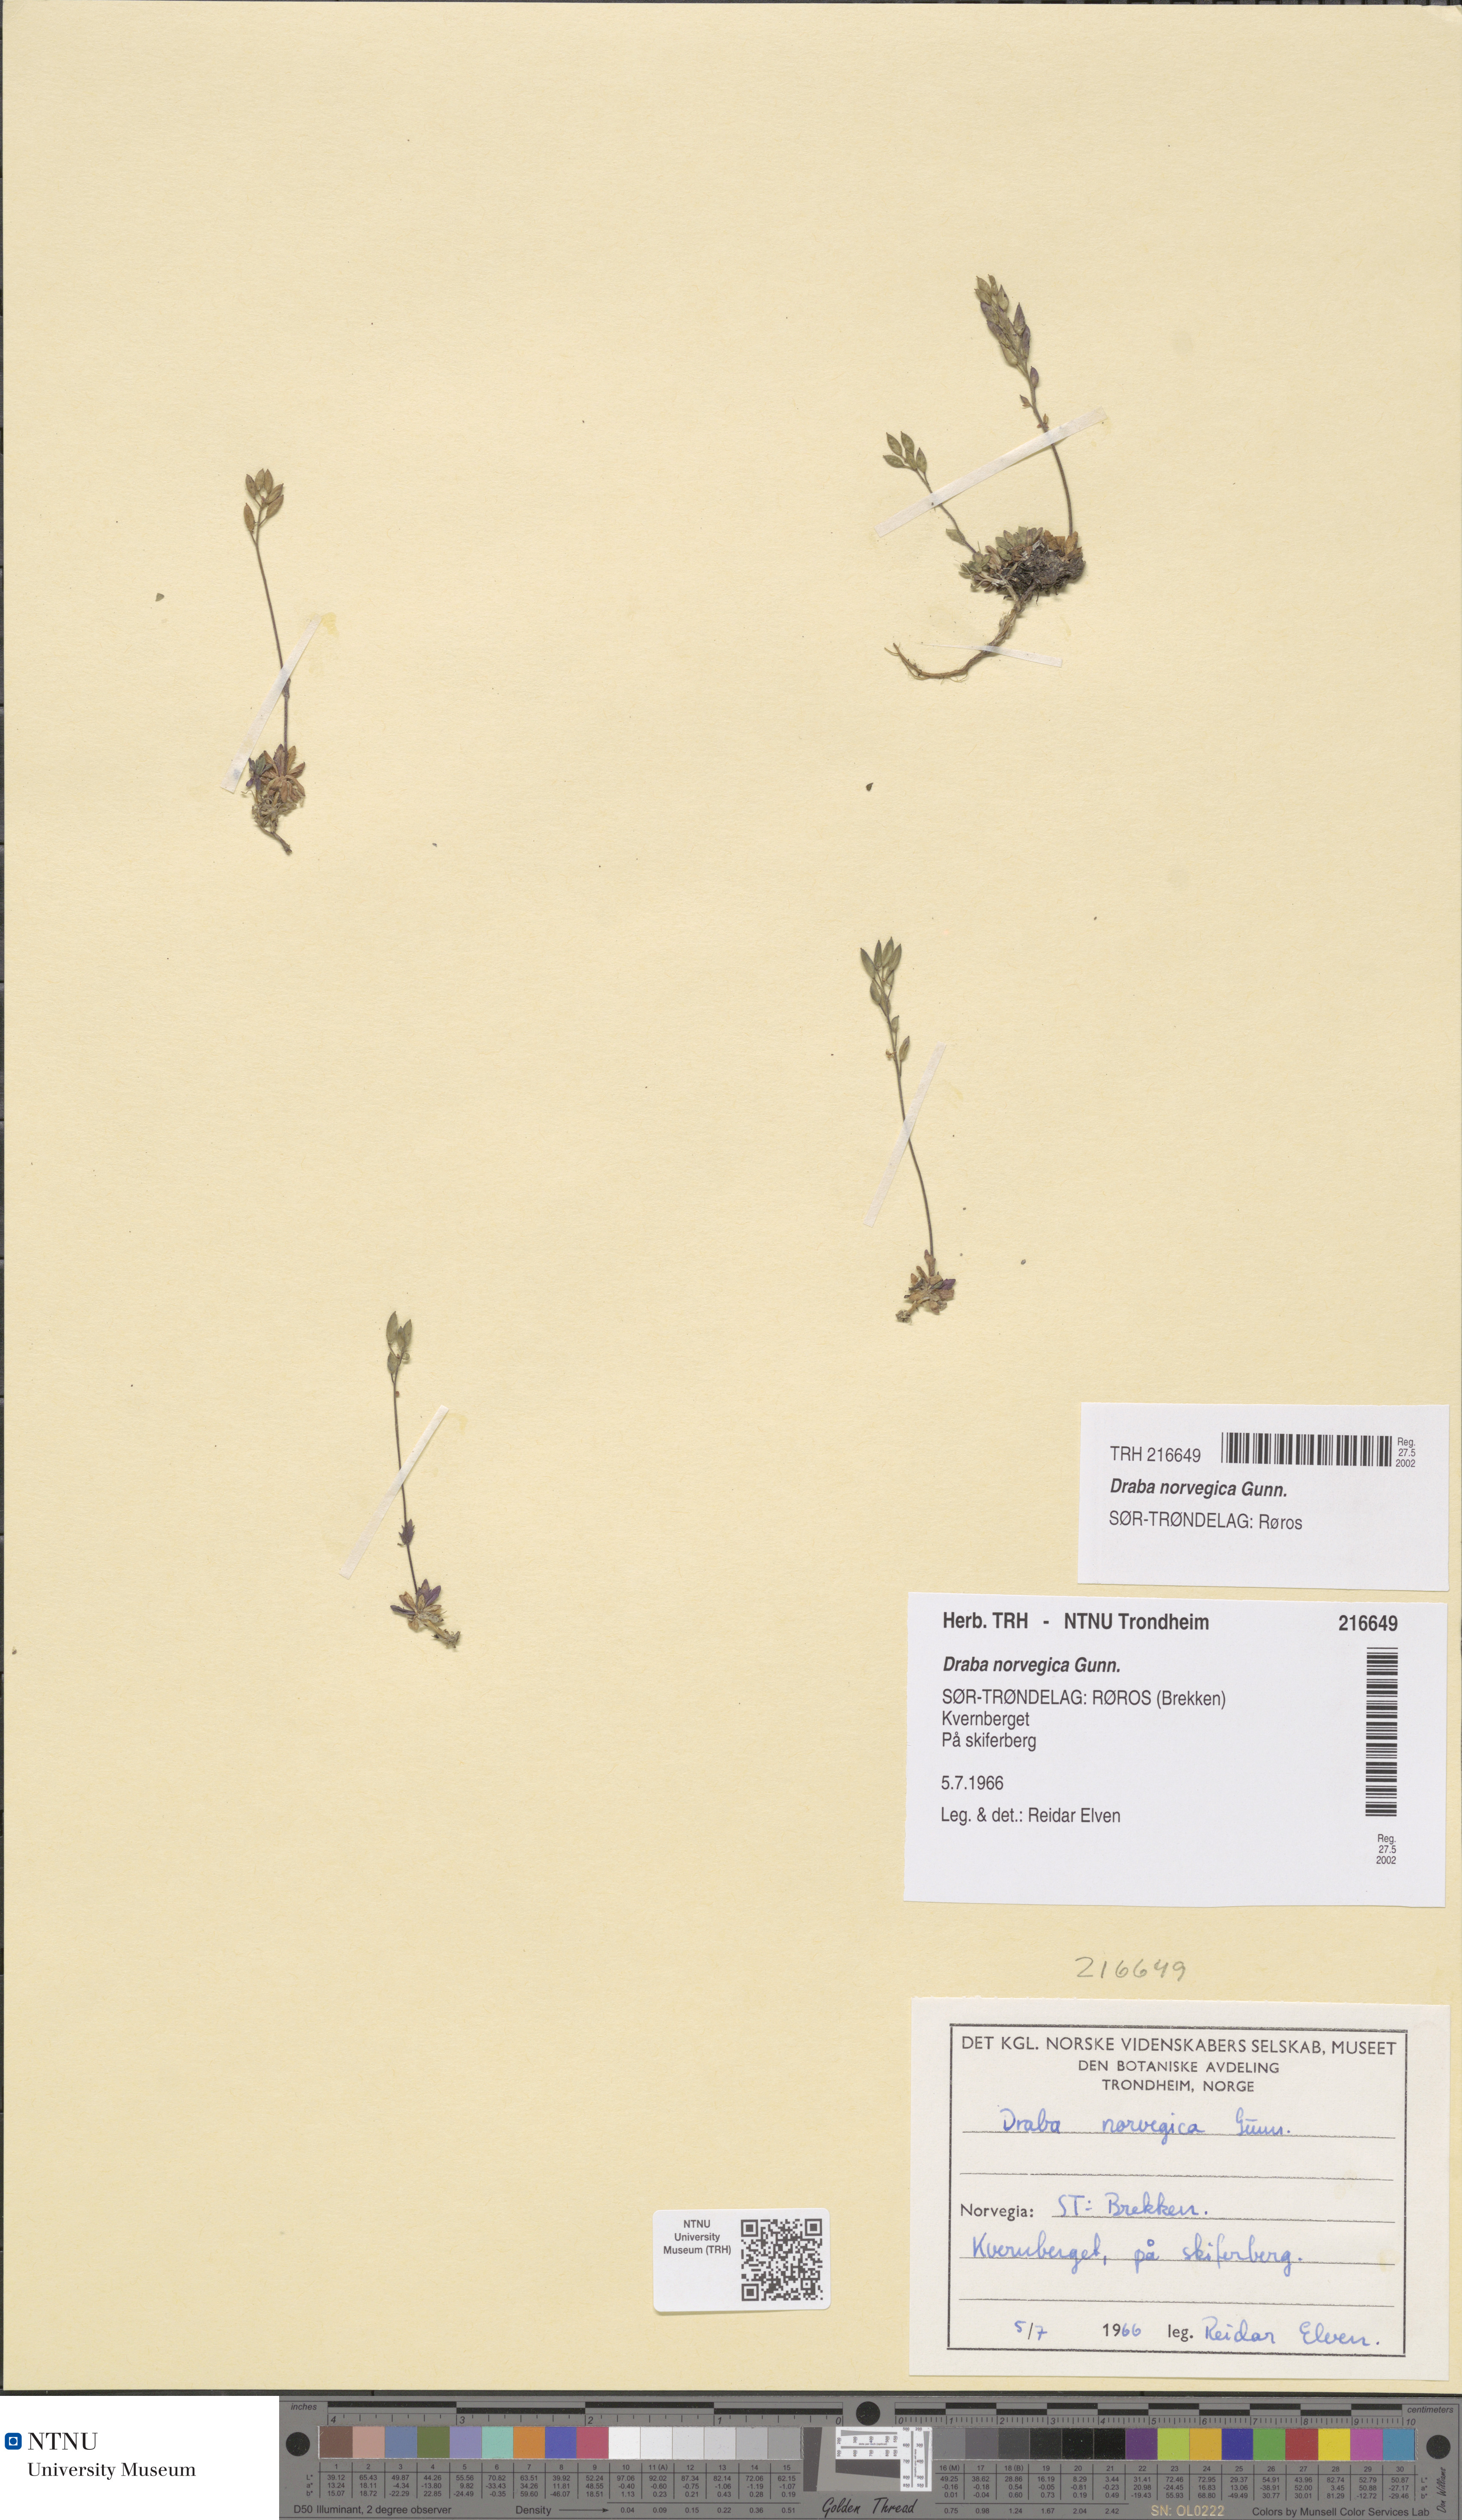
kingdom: Plantae
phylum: Tracheophyta
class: Magnoliopsida
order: Brassicales
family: Brassicaceae
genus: Draba
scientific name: Draba norvegica
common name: Rock whitlowgrass
